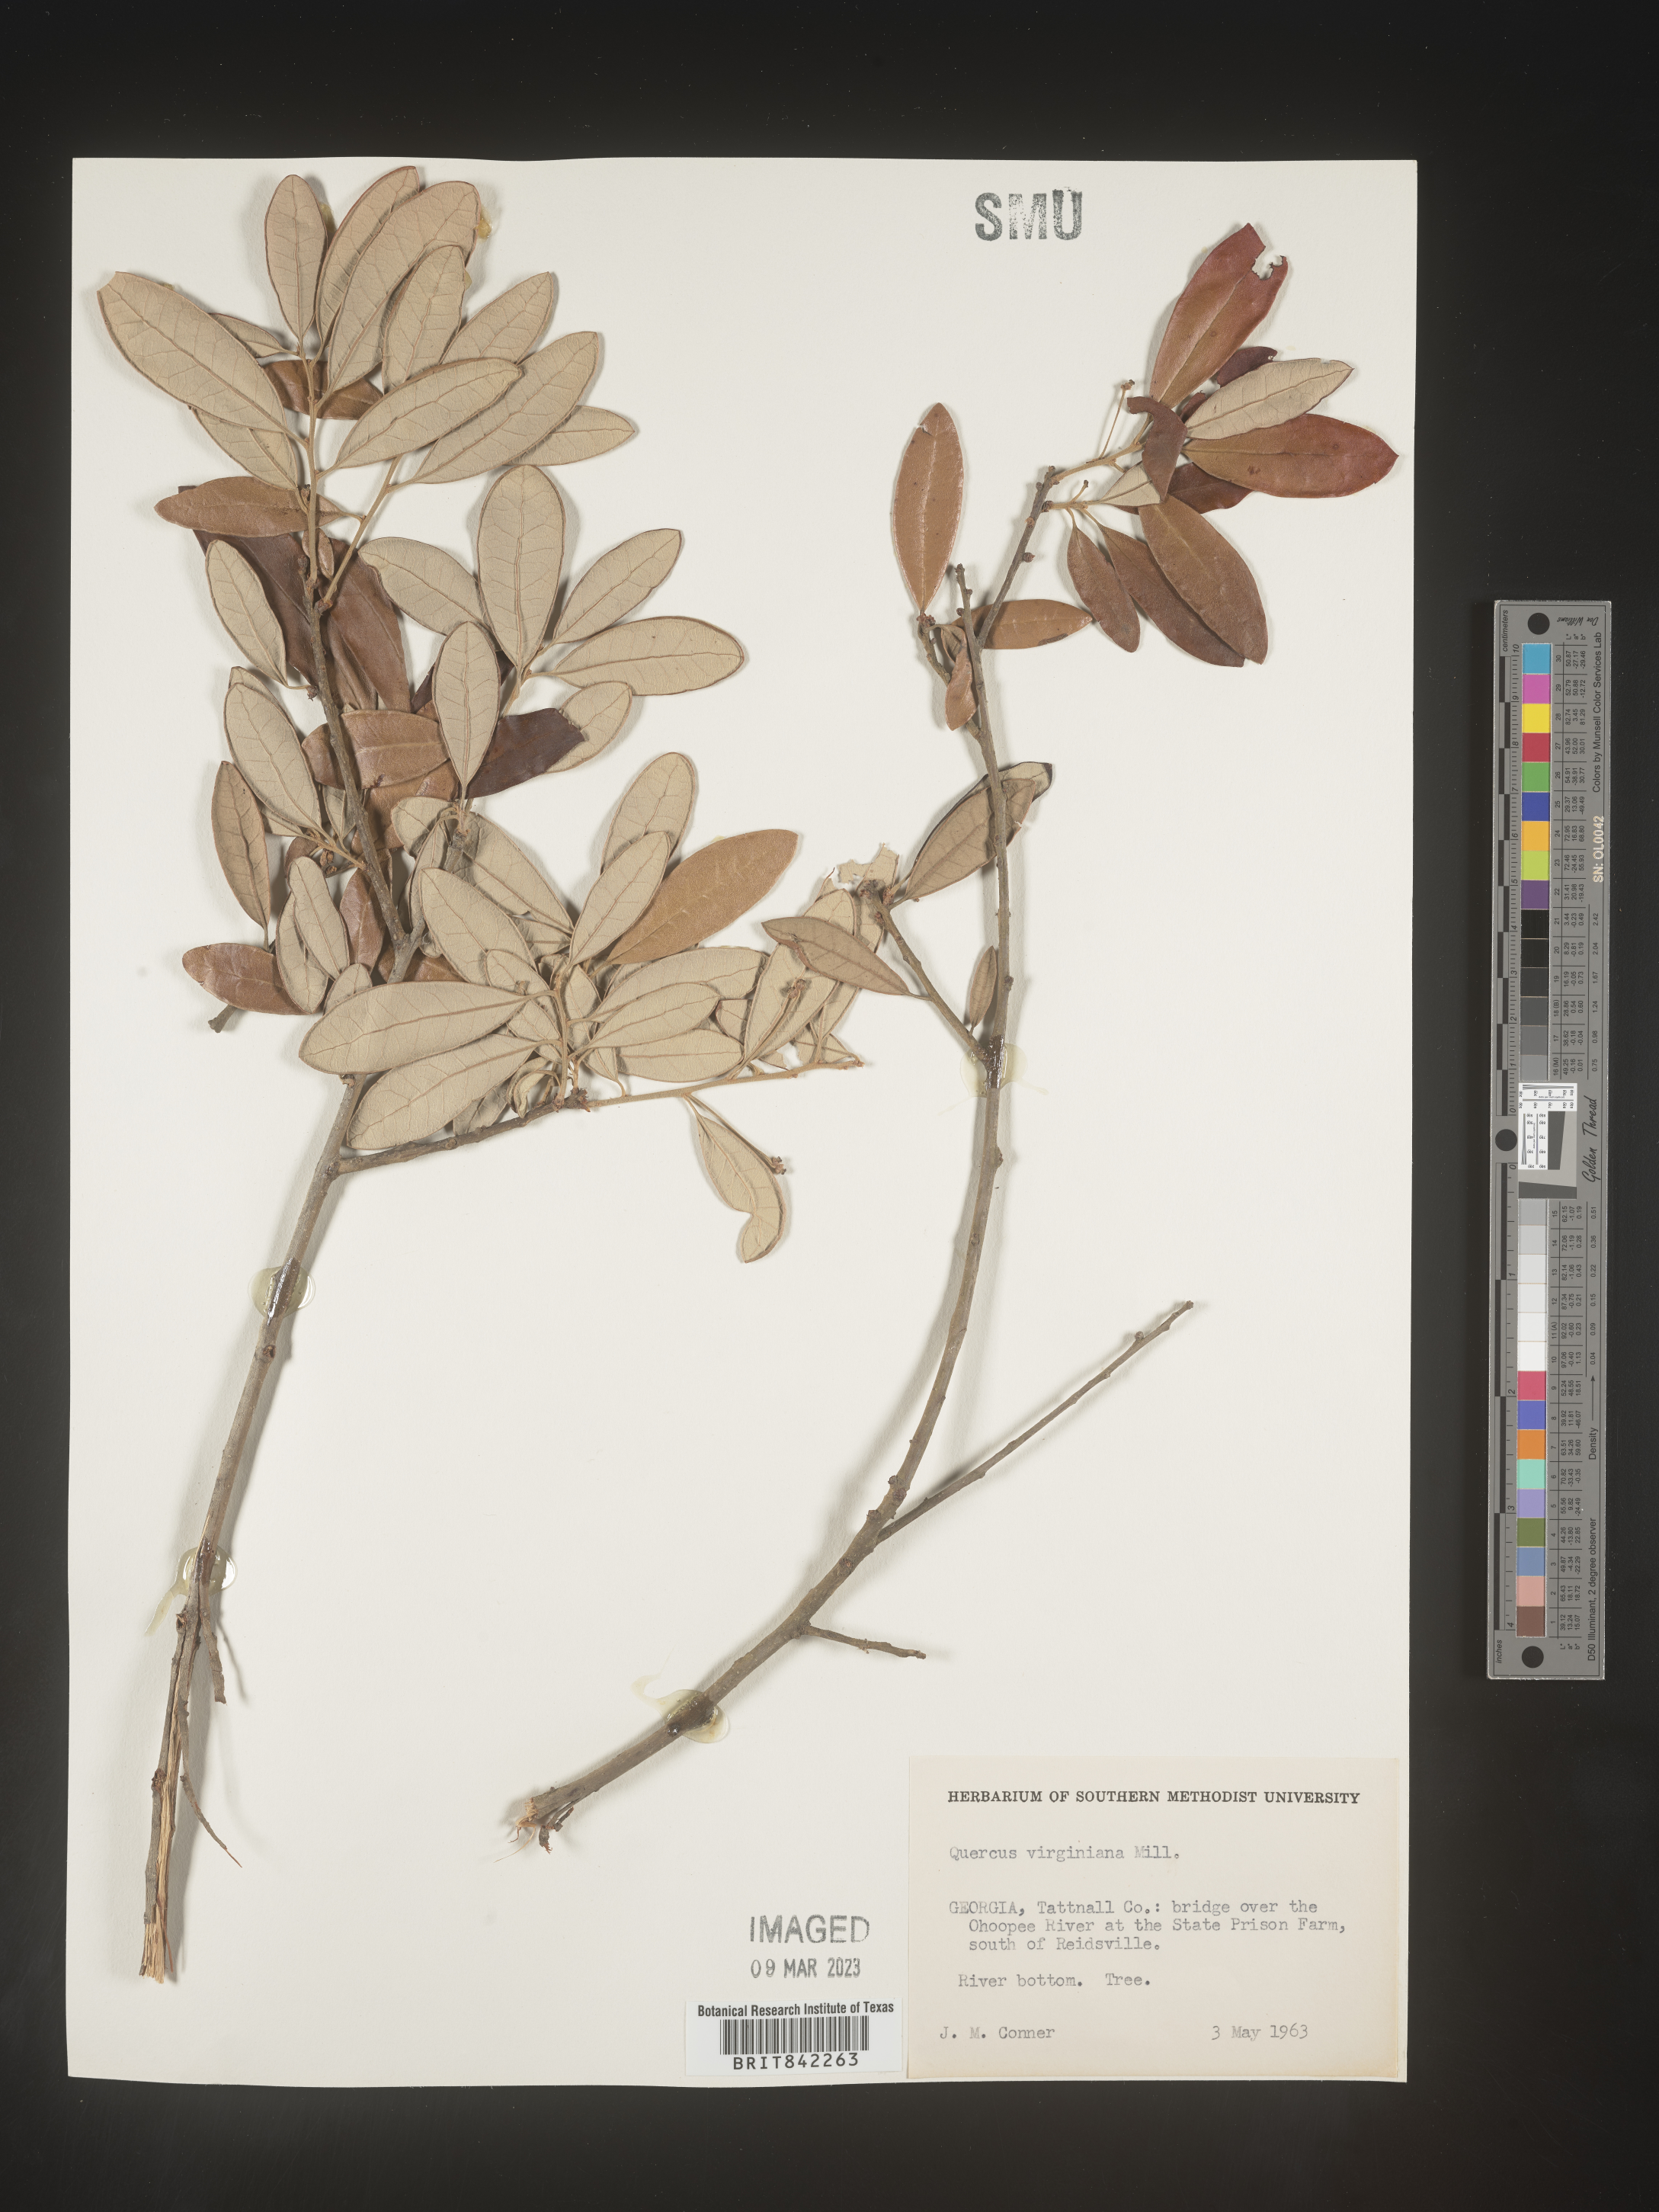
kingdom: Plantae
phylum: Tracheophyta
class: Magnoliopsida
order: Fagales
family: Fagaceae
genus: Quercus
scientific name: Quercus virginiana
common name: Southern live oak
